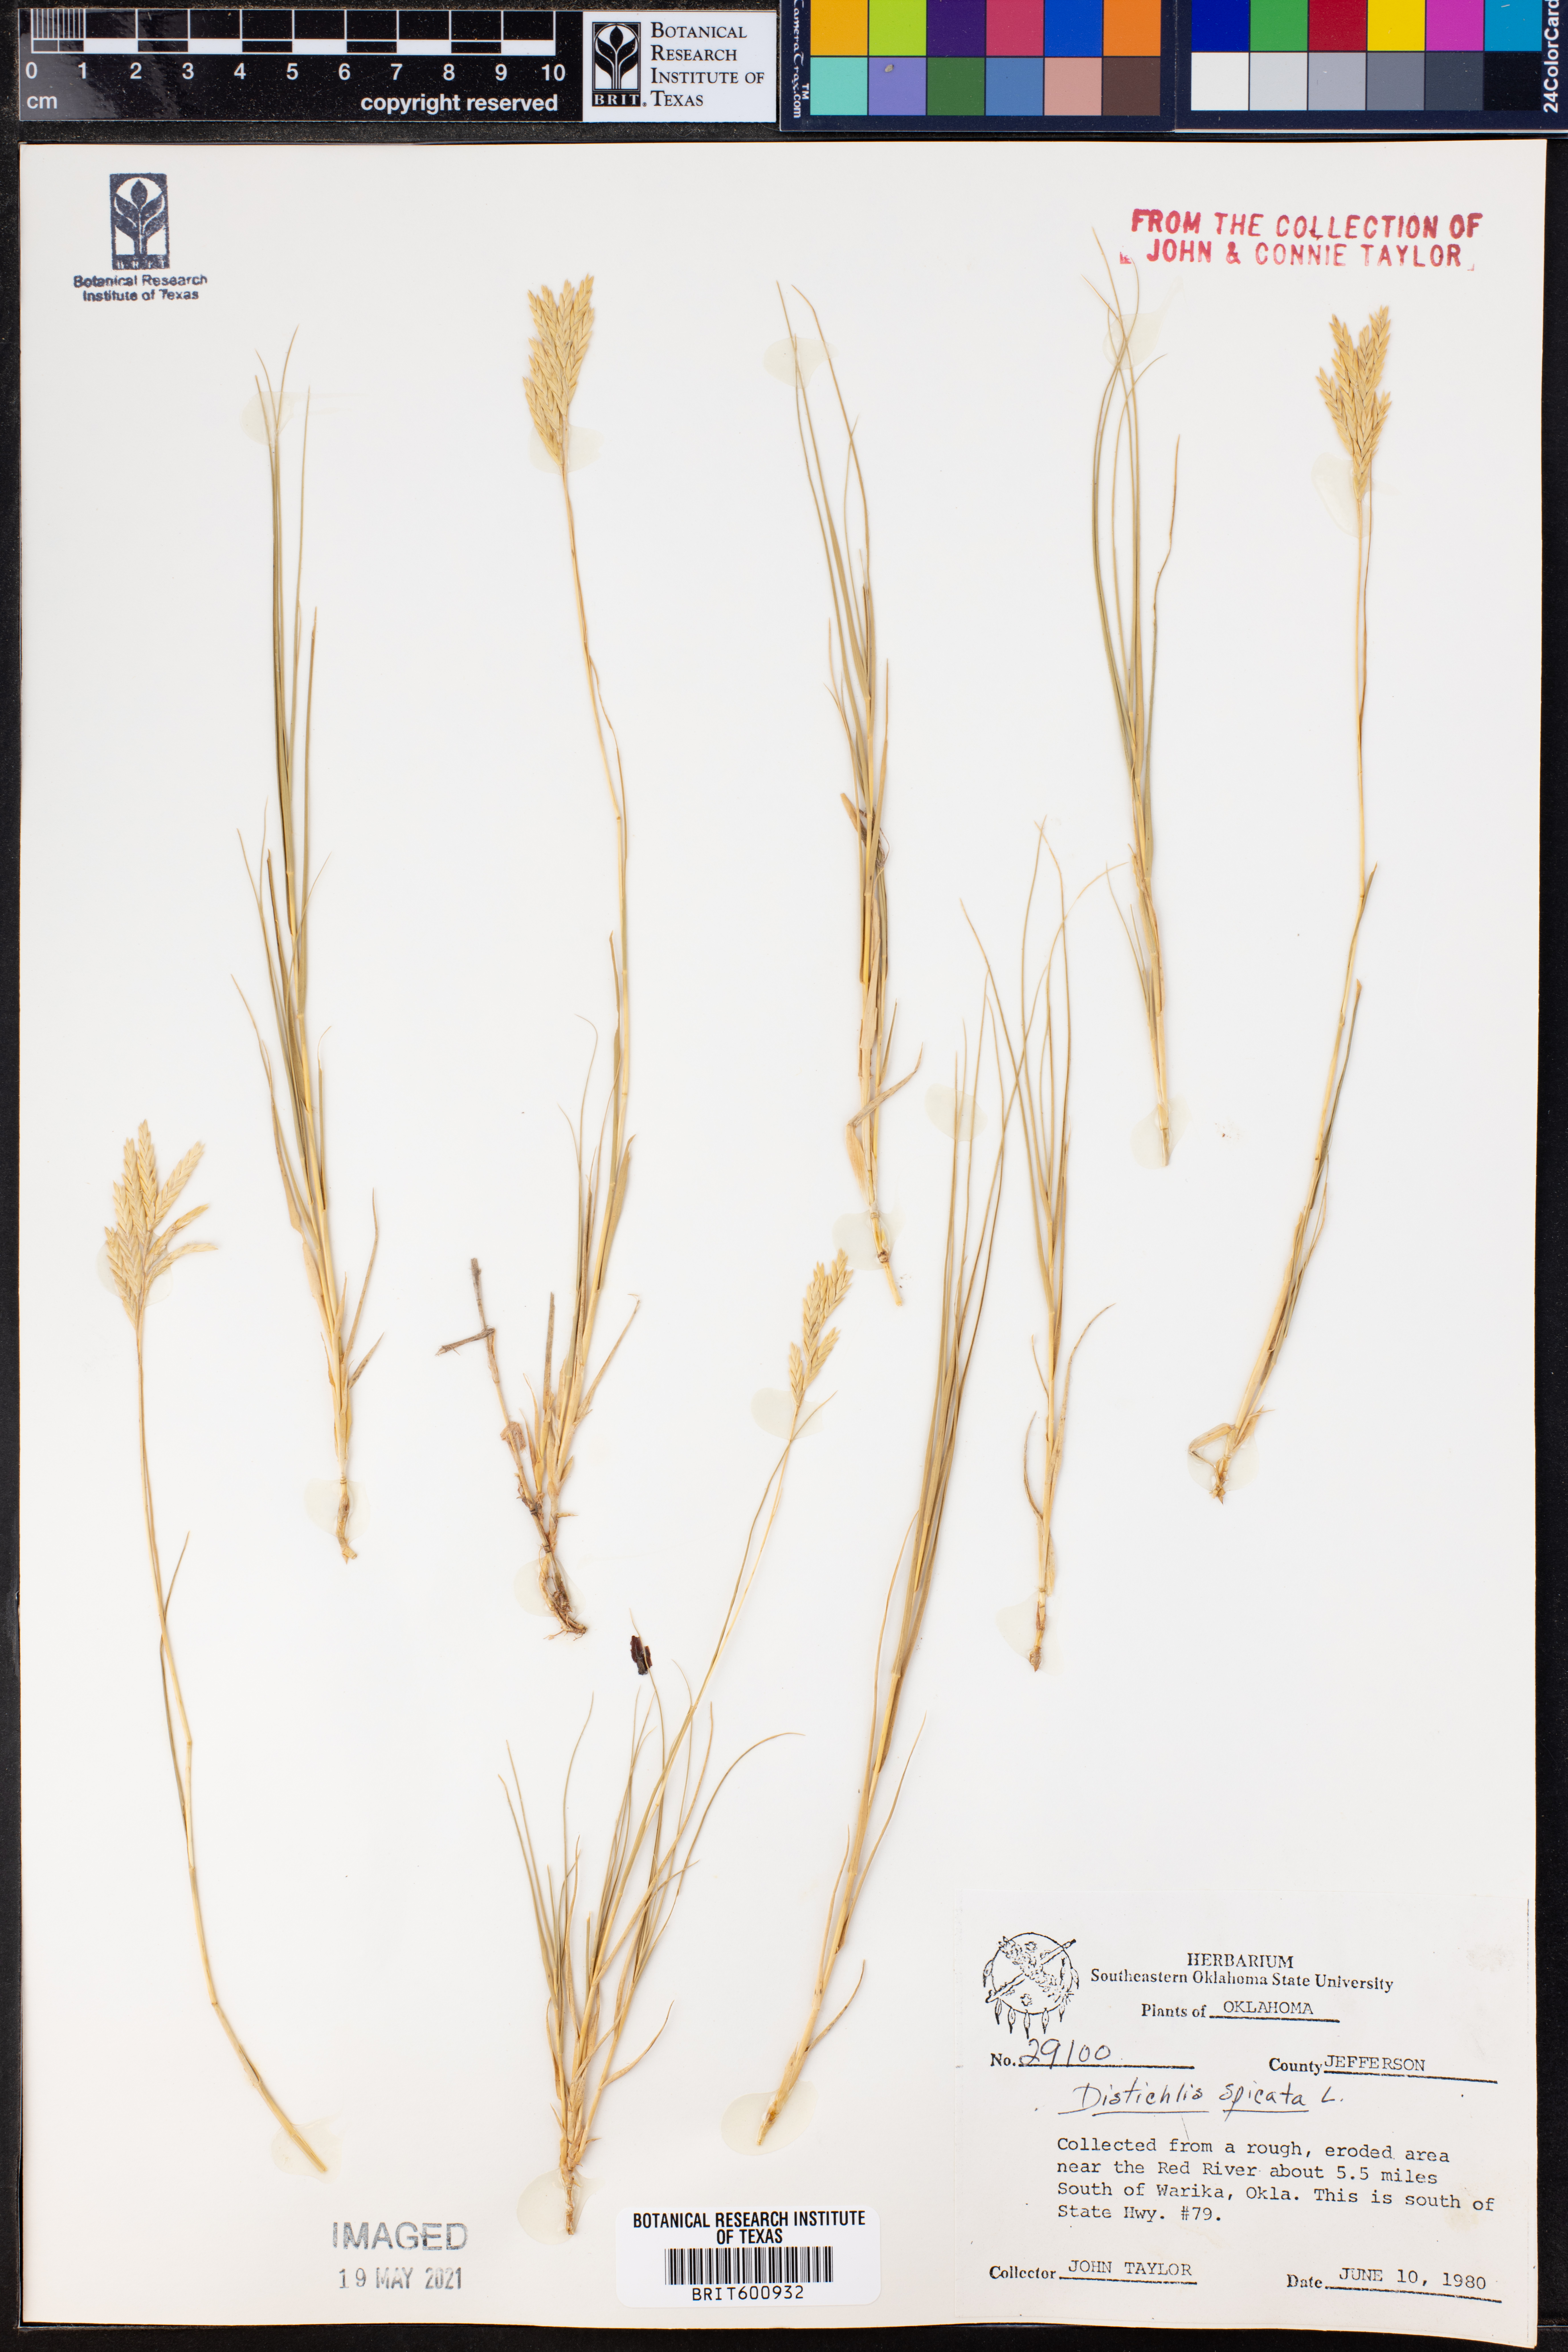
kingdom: Plantae
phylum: Tracheophyta
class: Liliopsida
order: Poales
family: Poaceae
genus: Distichlis
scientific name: Distichlis spicata
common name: Saltgrass
